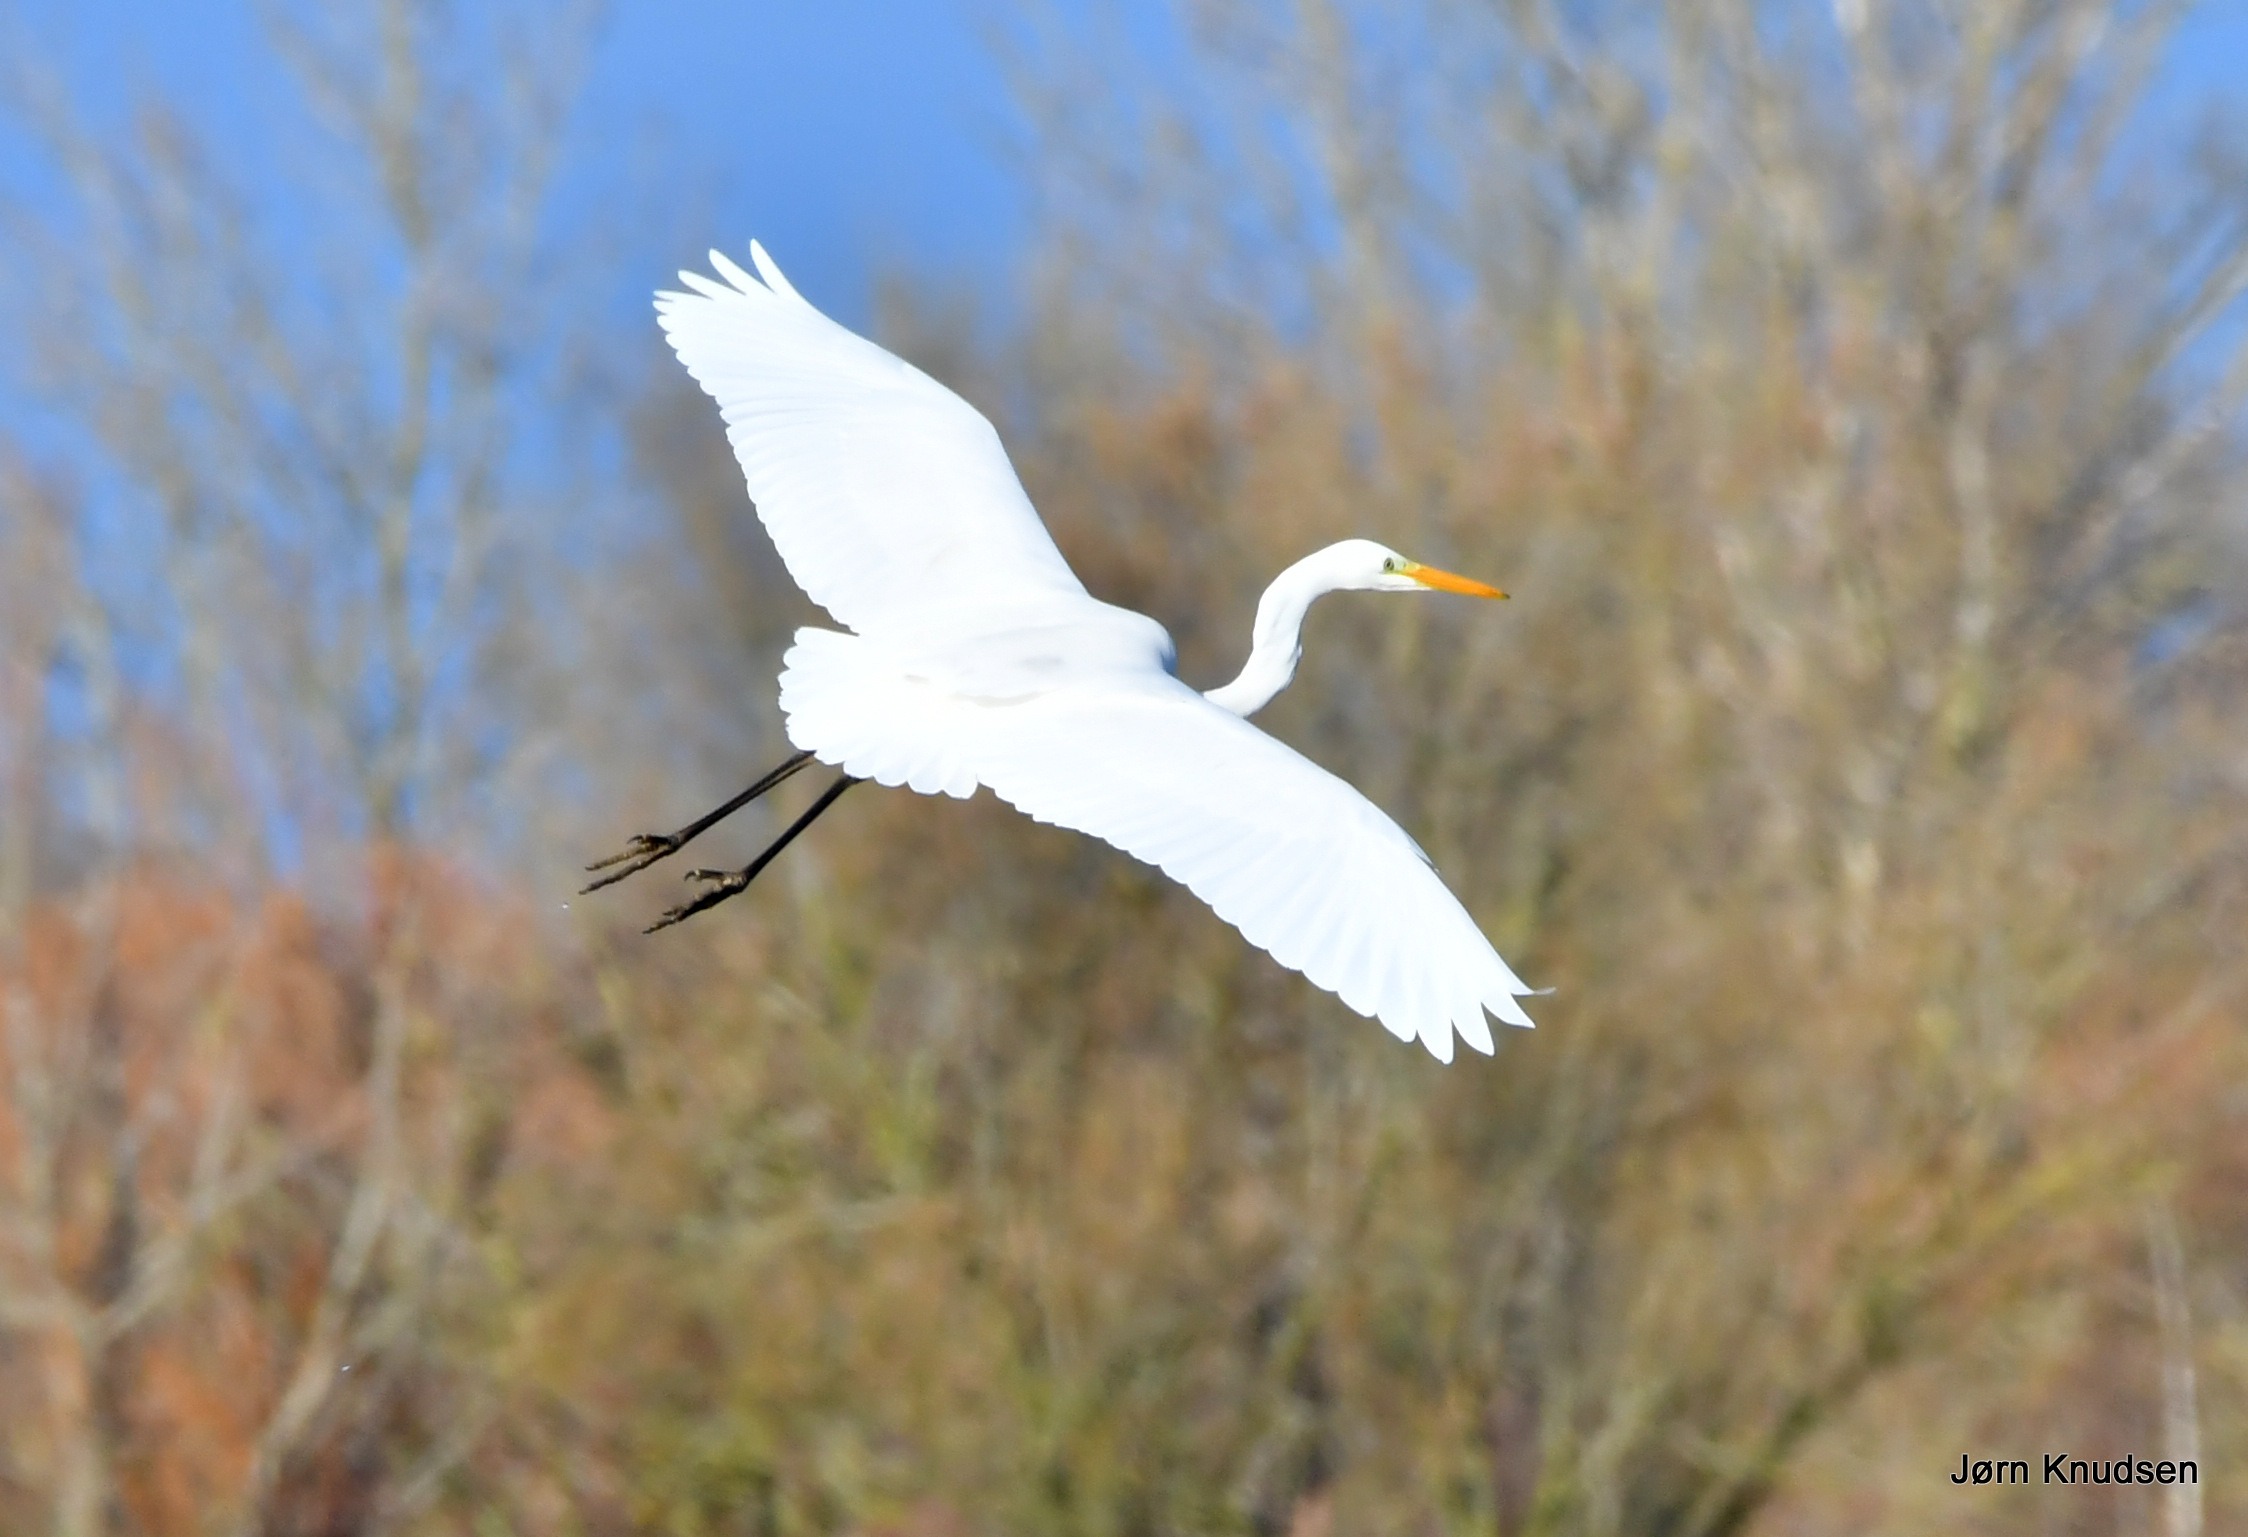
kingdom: Animalia
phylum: Chordata
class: Aves
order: Pelecaniformes
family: Ardeidae
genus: Ardea
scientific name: Ardea alba
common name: Sølvhejre
